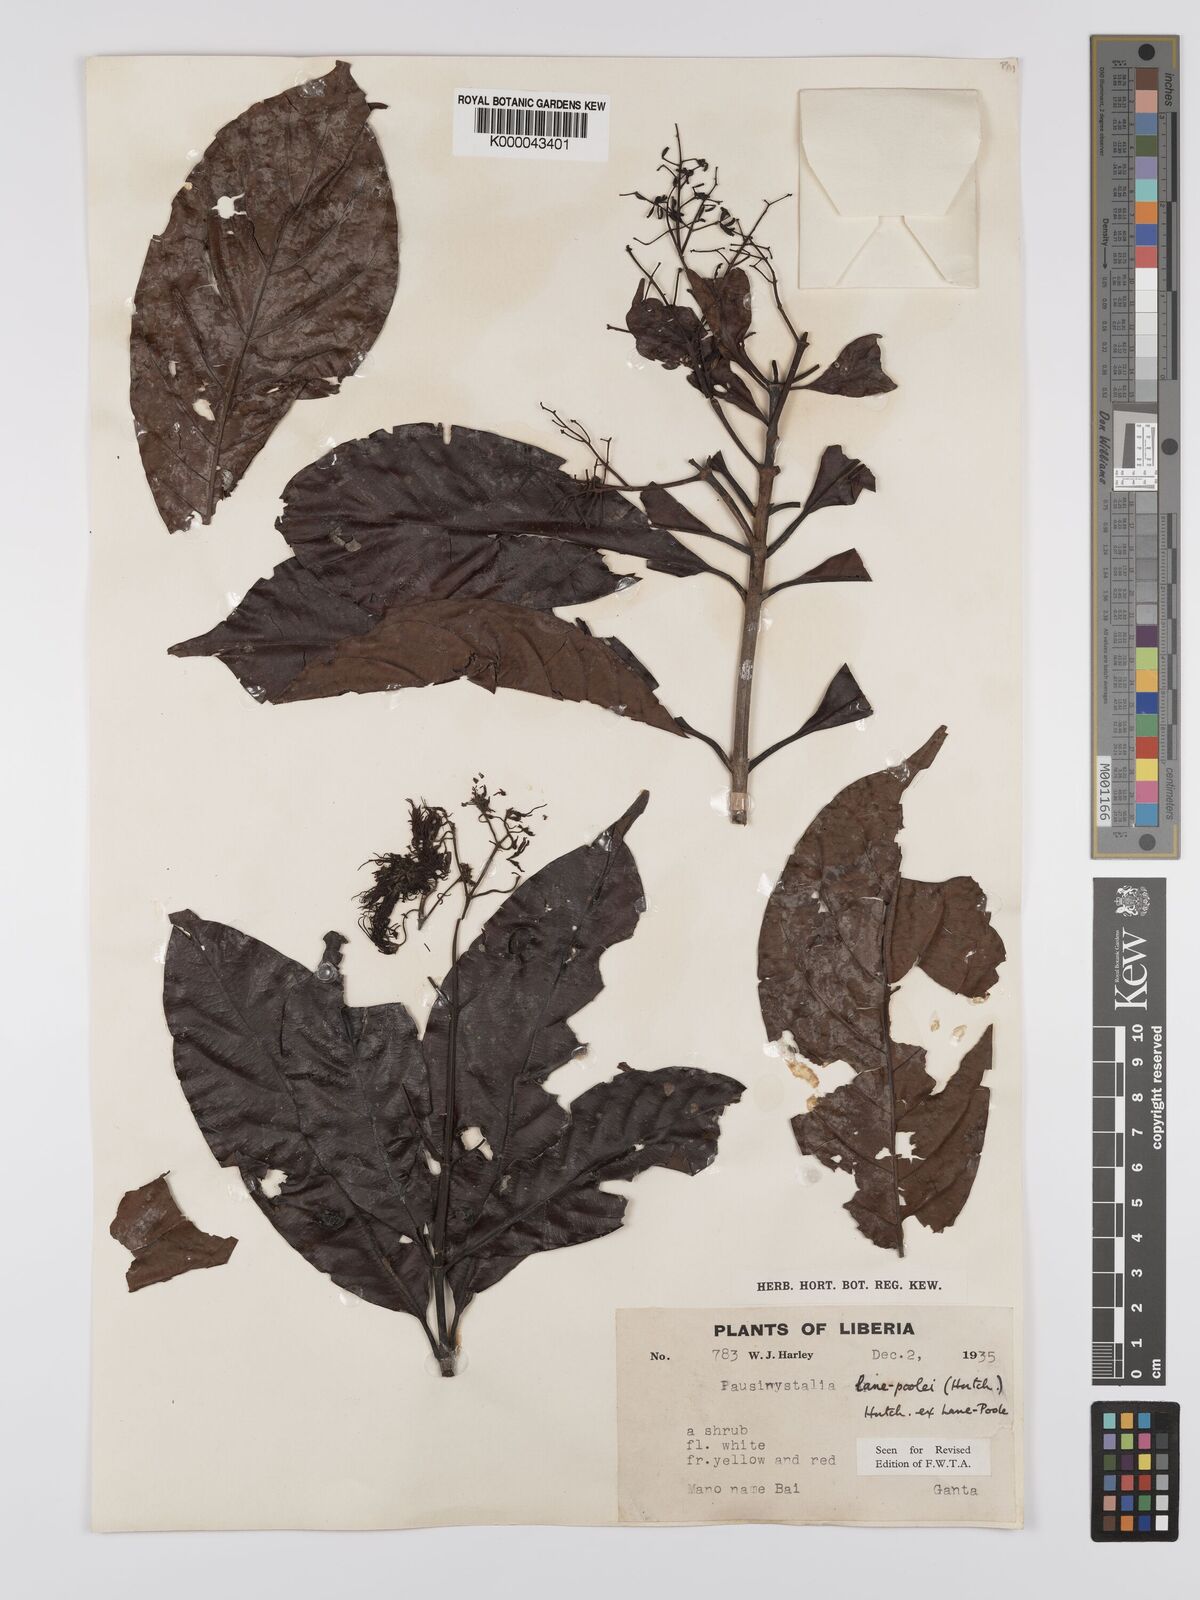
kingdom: Plantae
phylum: Tracheophyta
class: Magnoliopsida
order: Gentianales
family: Rubiaceae
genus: Corynanthe
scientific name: Corynanthe lane-poolei
